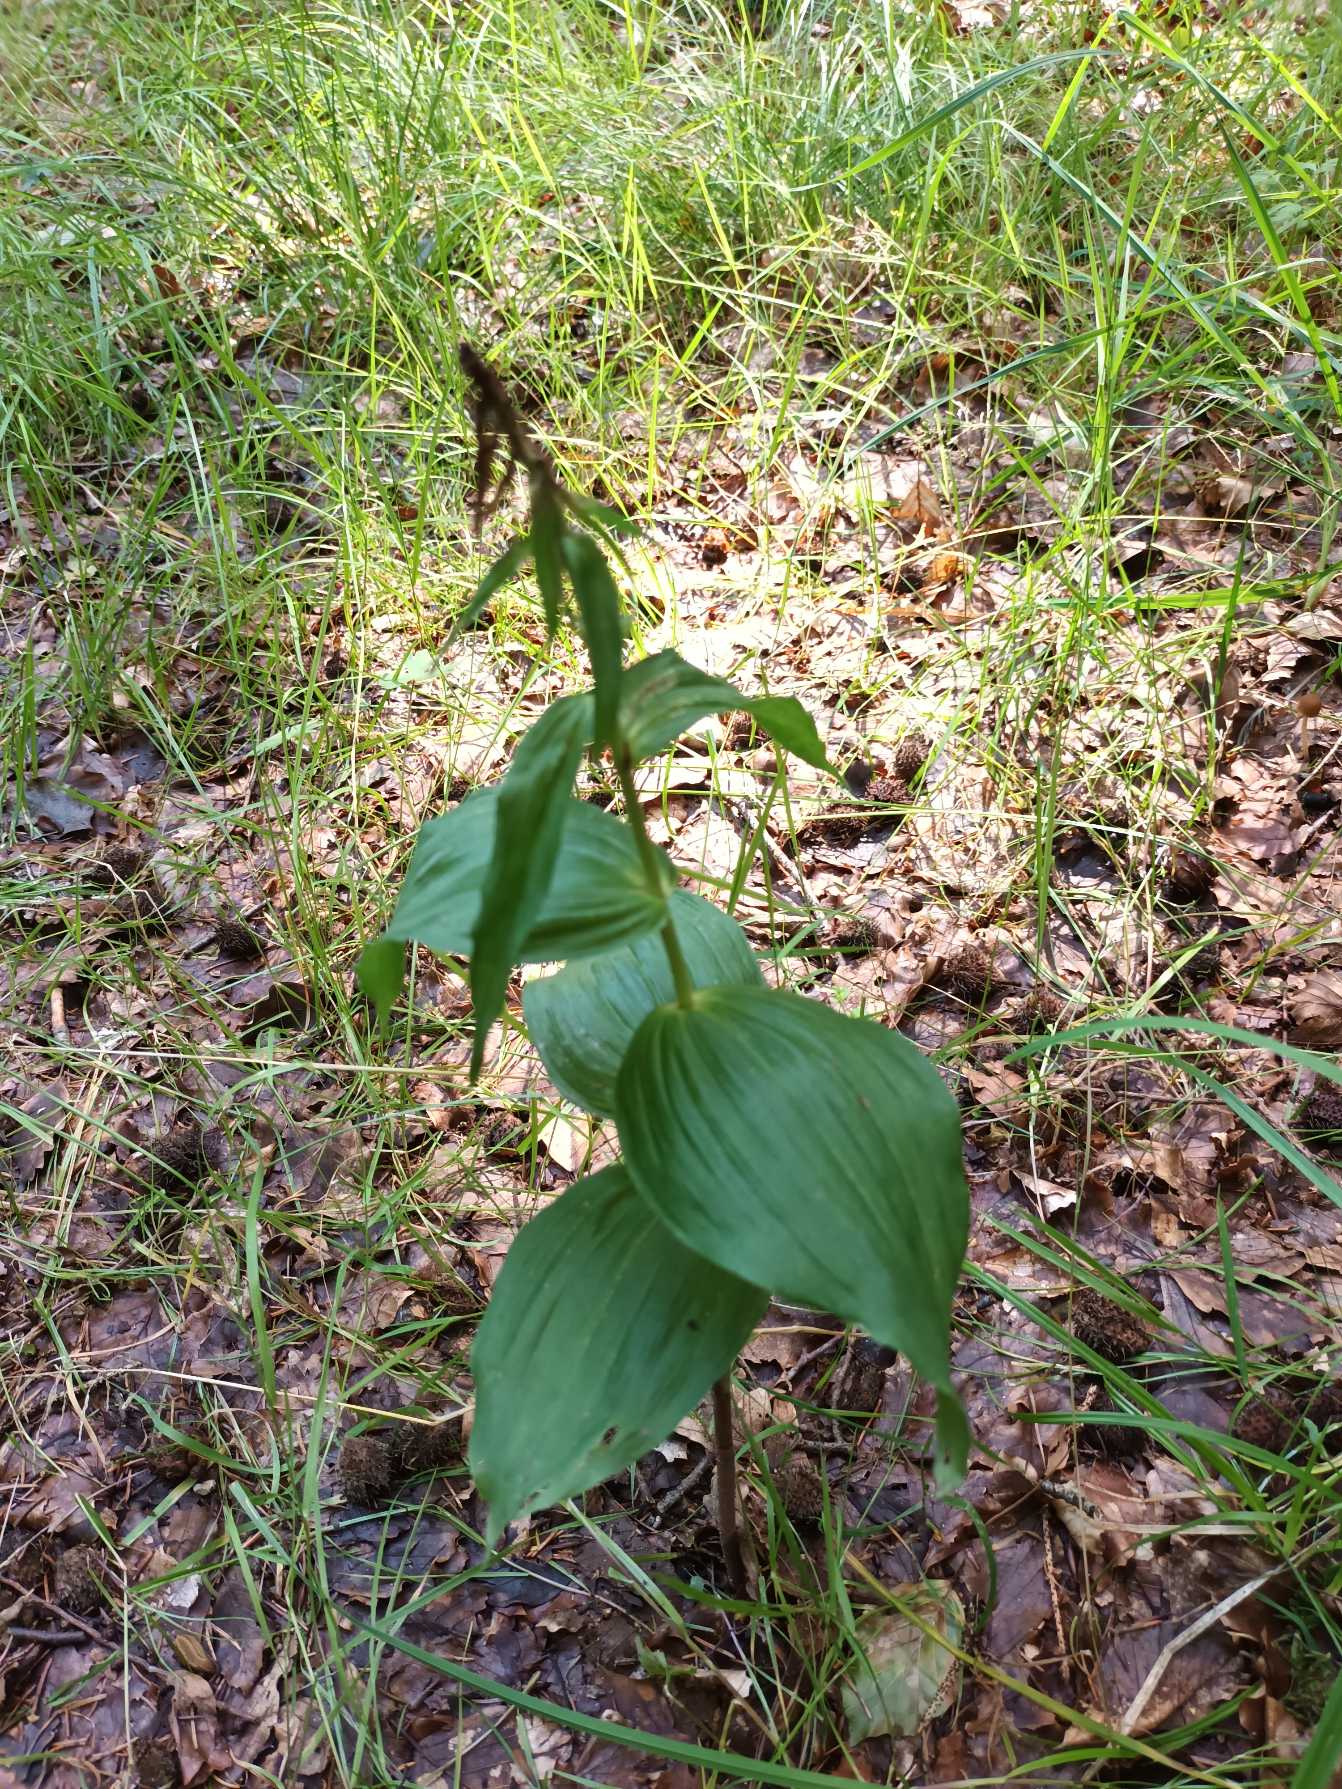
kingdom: Plantae
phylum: Tracheophyta
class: Liliopsida
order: Asparagales
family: Orchidaceae
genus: Epipactis
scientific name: Epipactis helleborine
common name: Skov-hullæbe
